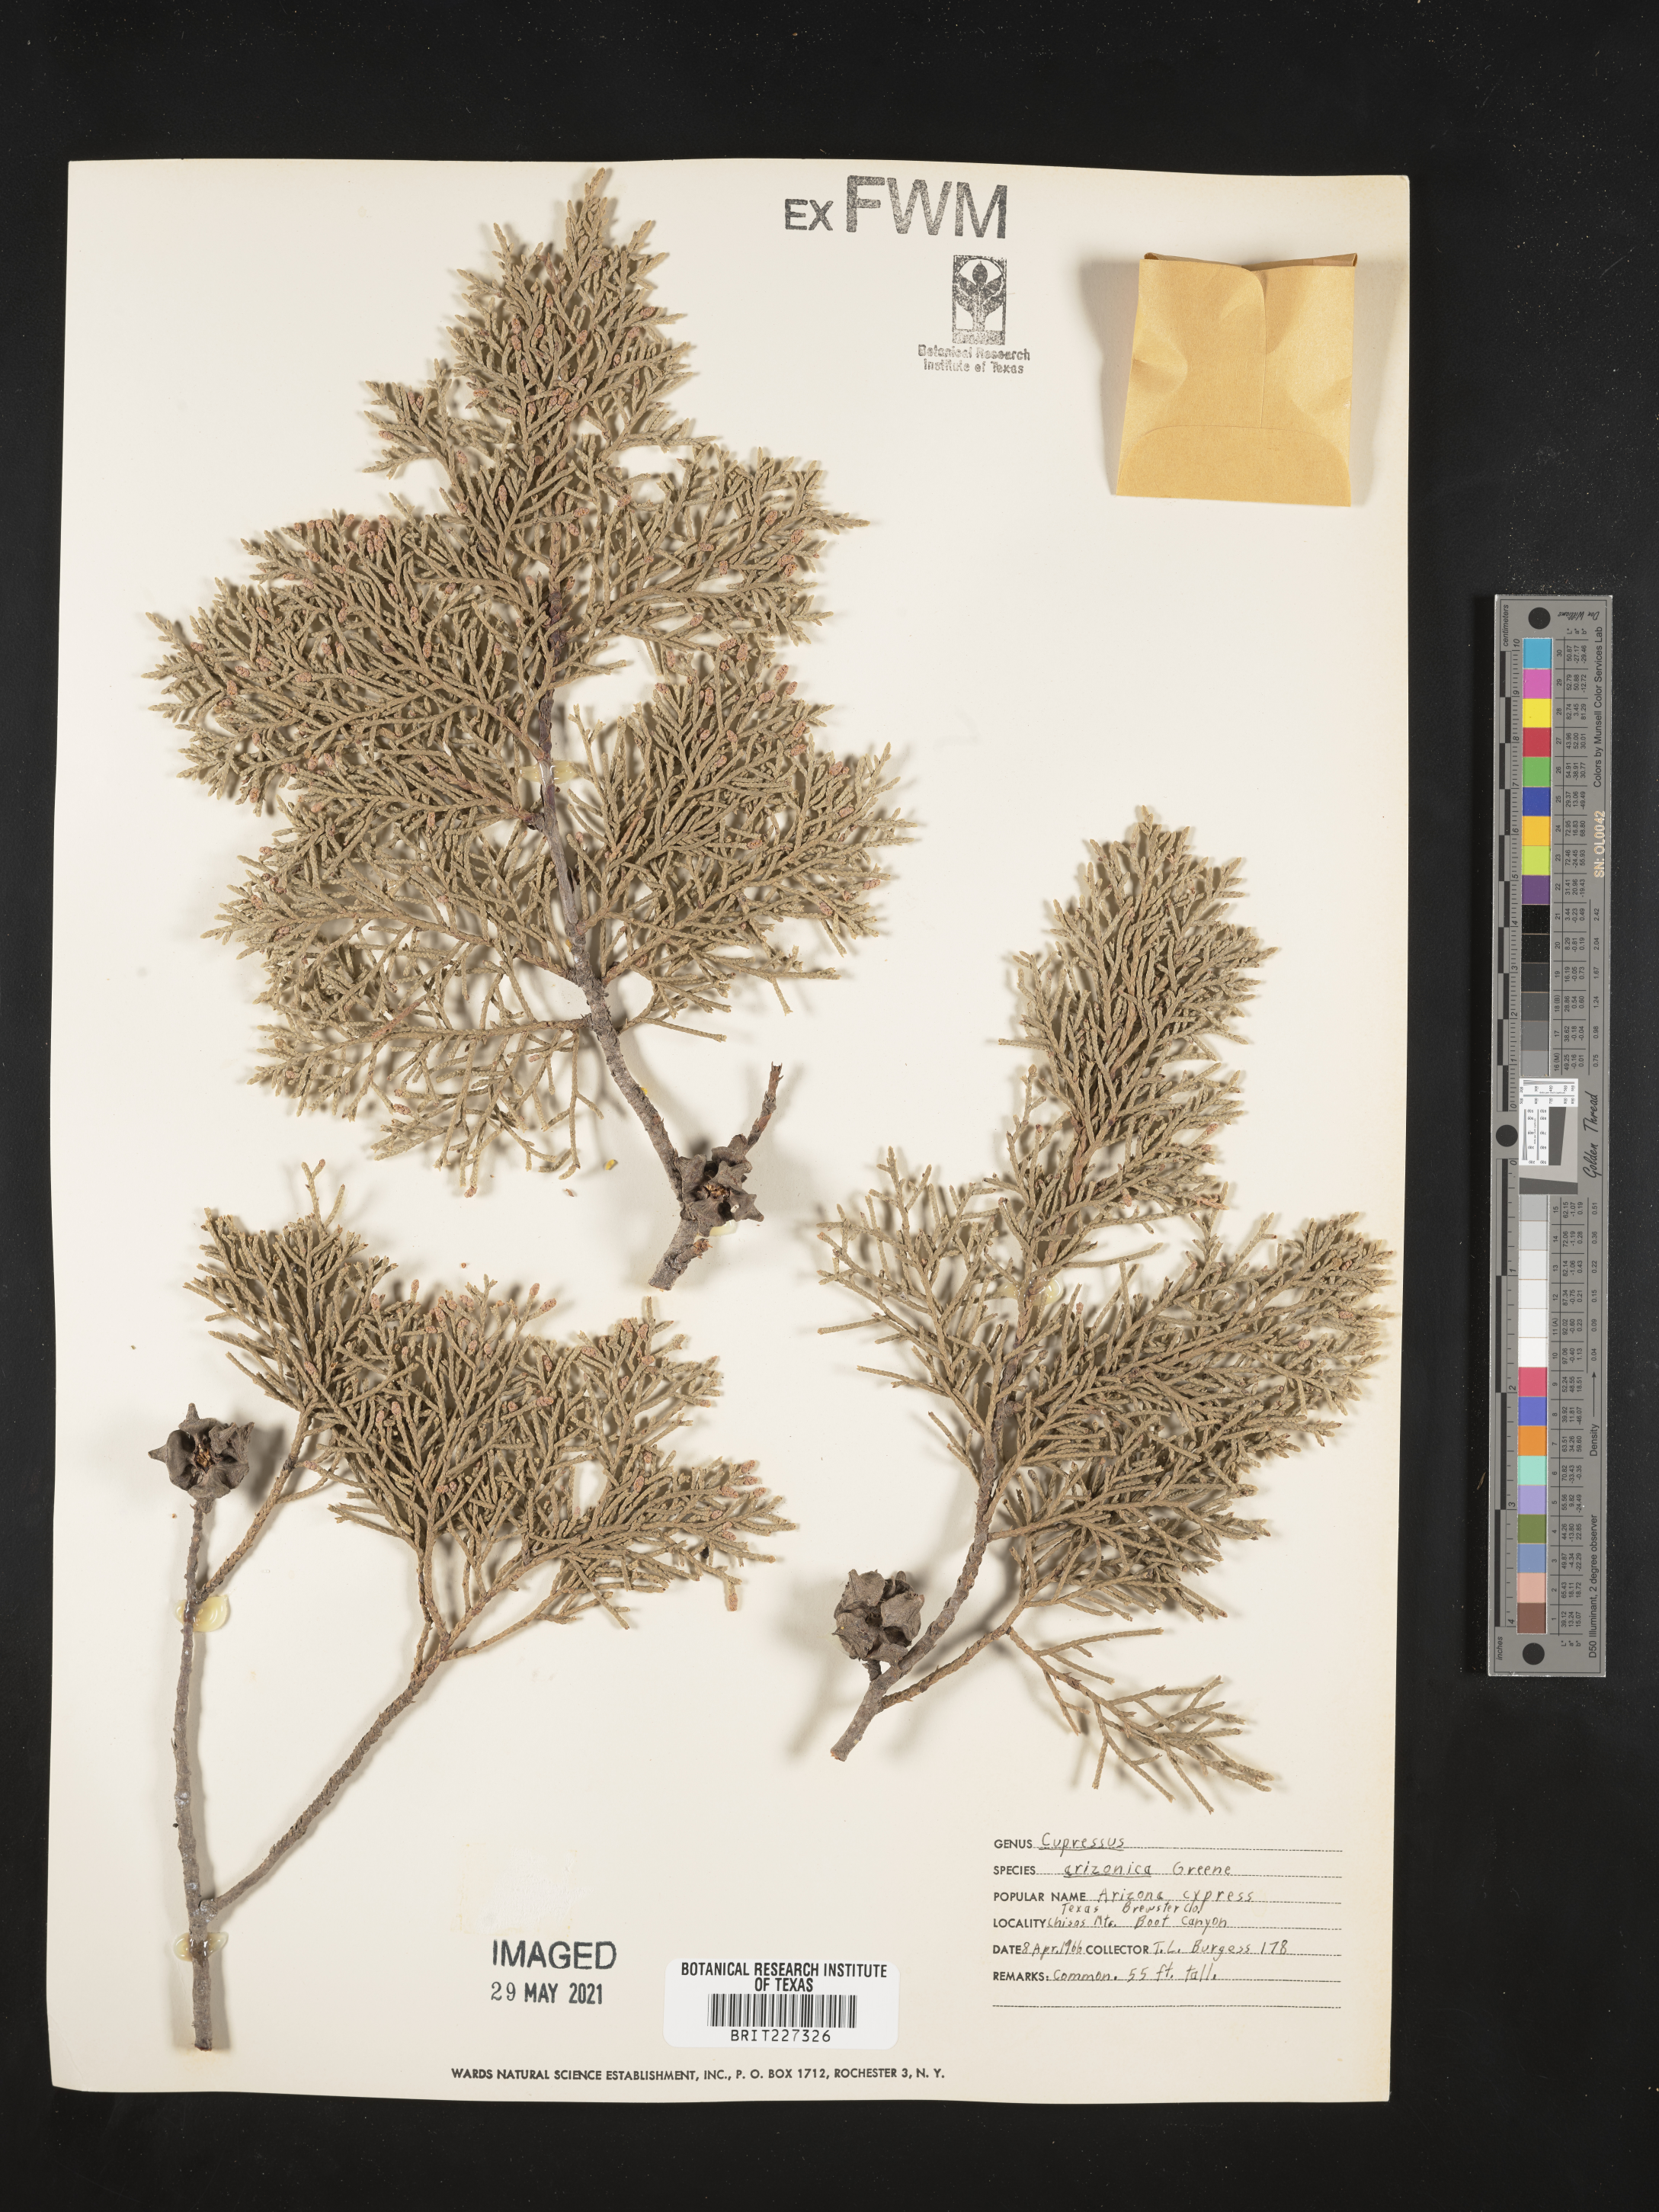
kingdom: Plantae
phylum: Tracheophyta
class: Pinopsida
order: Pinales
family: Cupressaceae
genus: Cupressus
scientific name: Cupressus arizonica
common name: Arizona cypress
